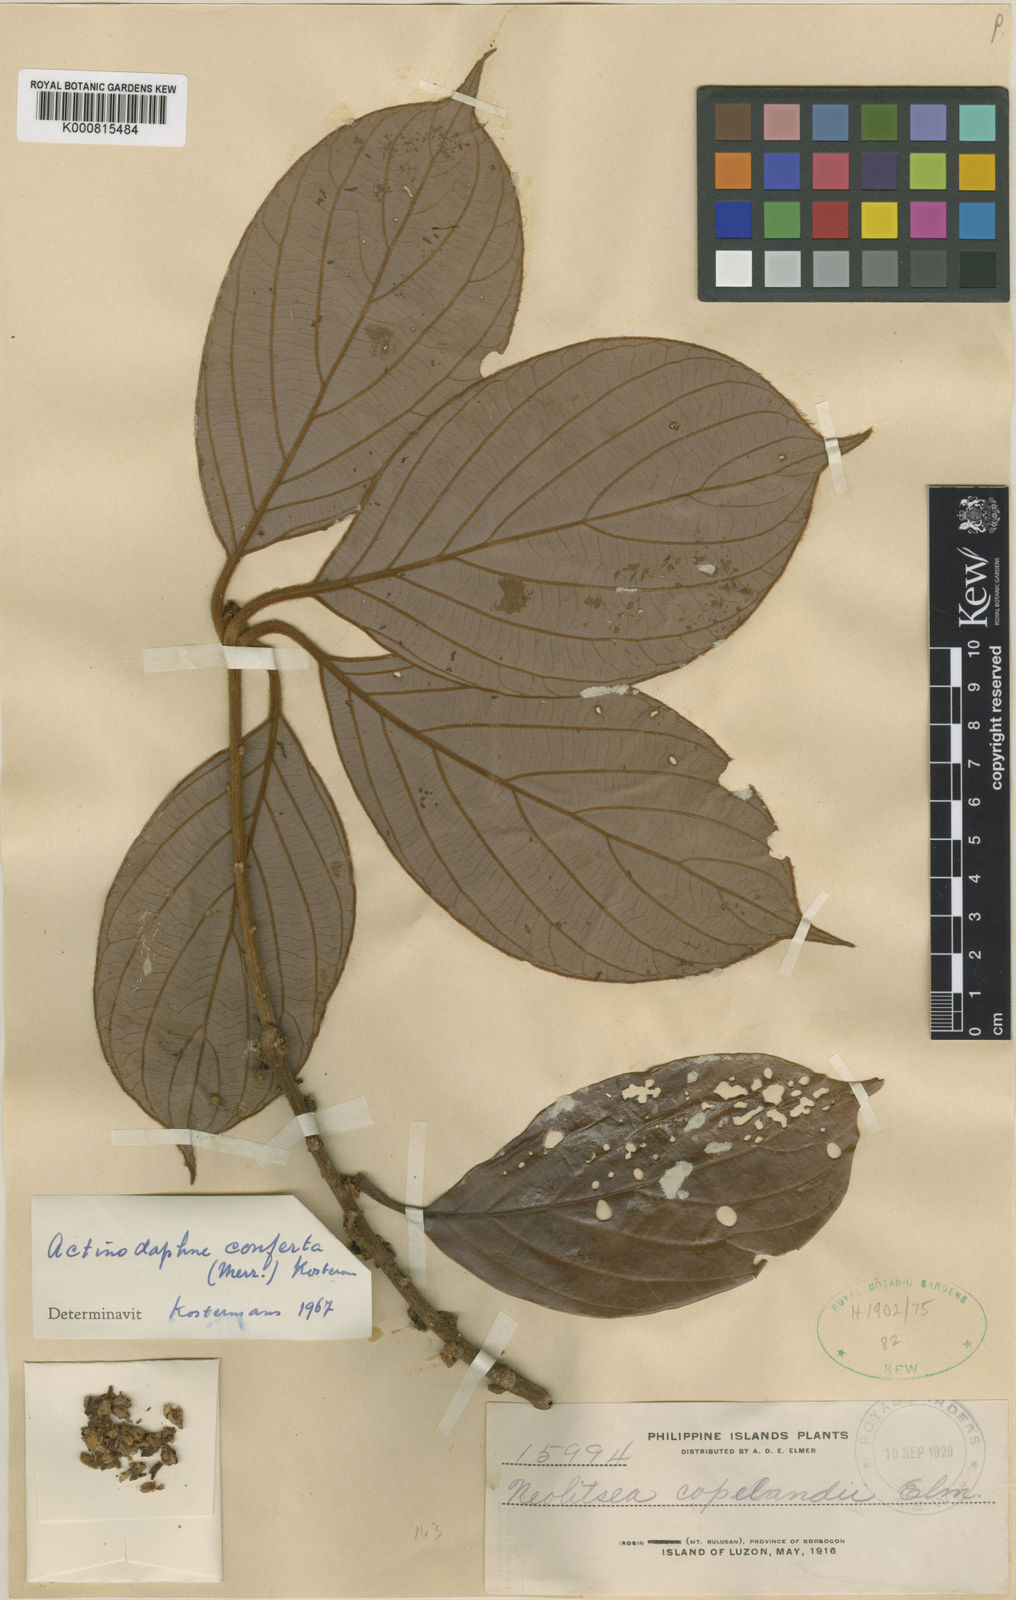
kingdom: Plantae
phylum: Tracheophyta
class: Magnoliopsida
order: Laurales
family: Lauraceae
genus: Neolitsea
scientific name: Neolitsea
